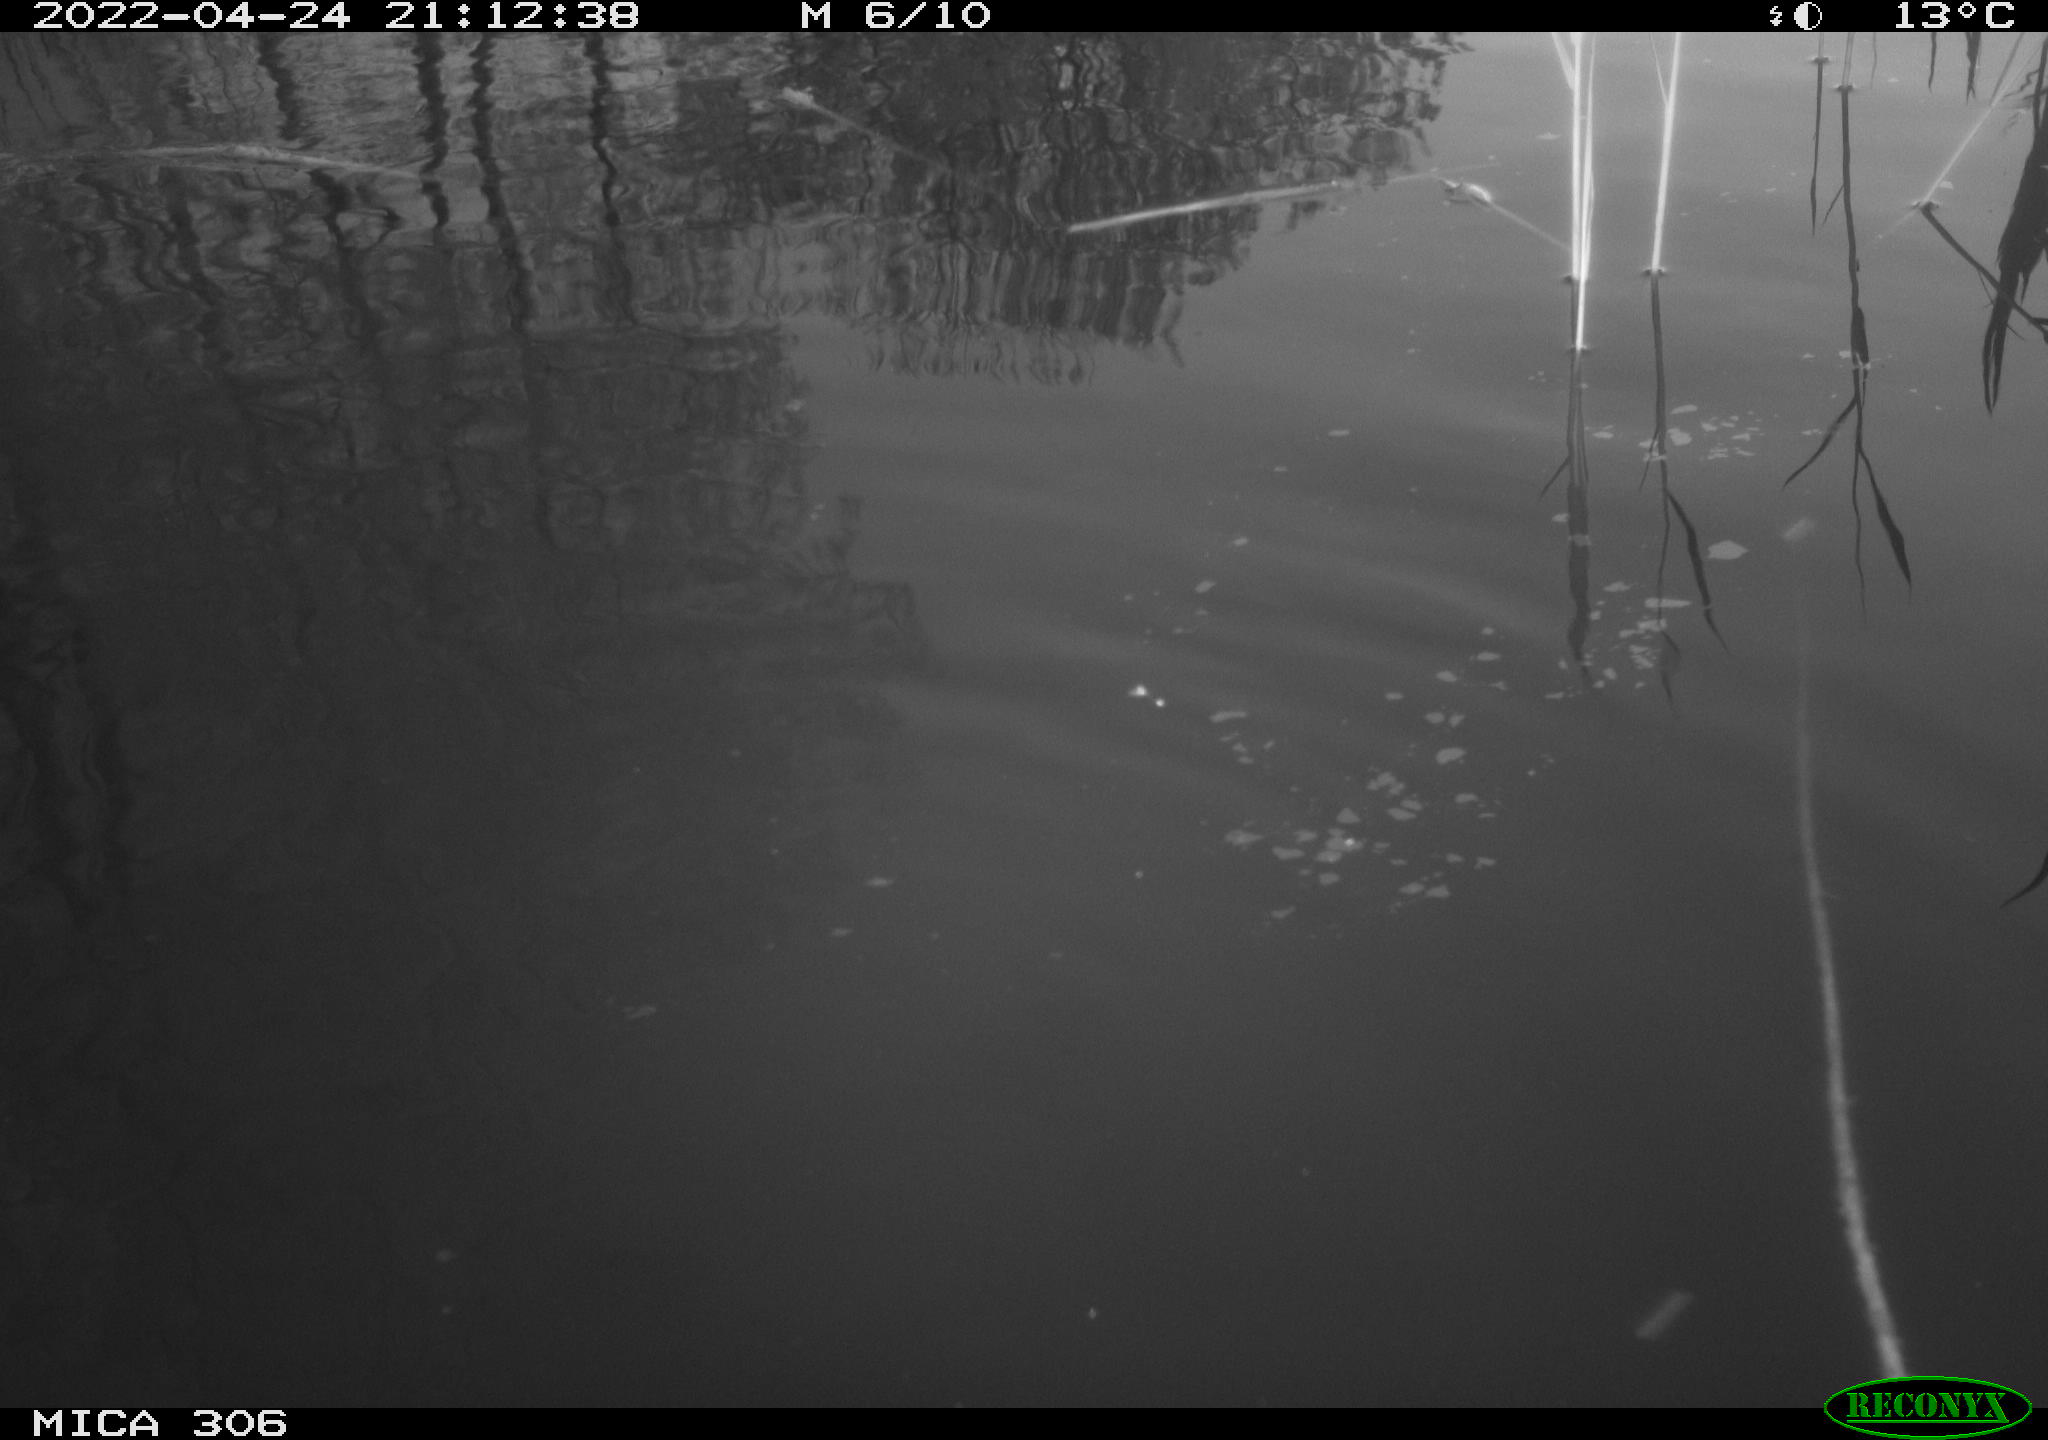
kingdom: Animalia
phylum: Chordata
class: Aves
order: Gruiformes
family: Rallidae
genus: Gallinula
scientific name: Gallinula chloropus
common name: Common moorhen
